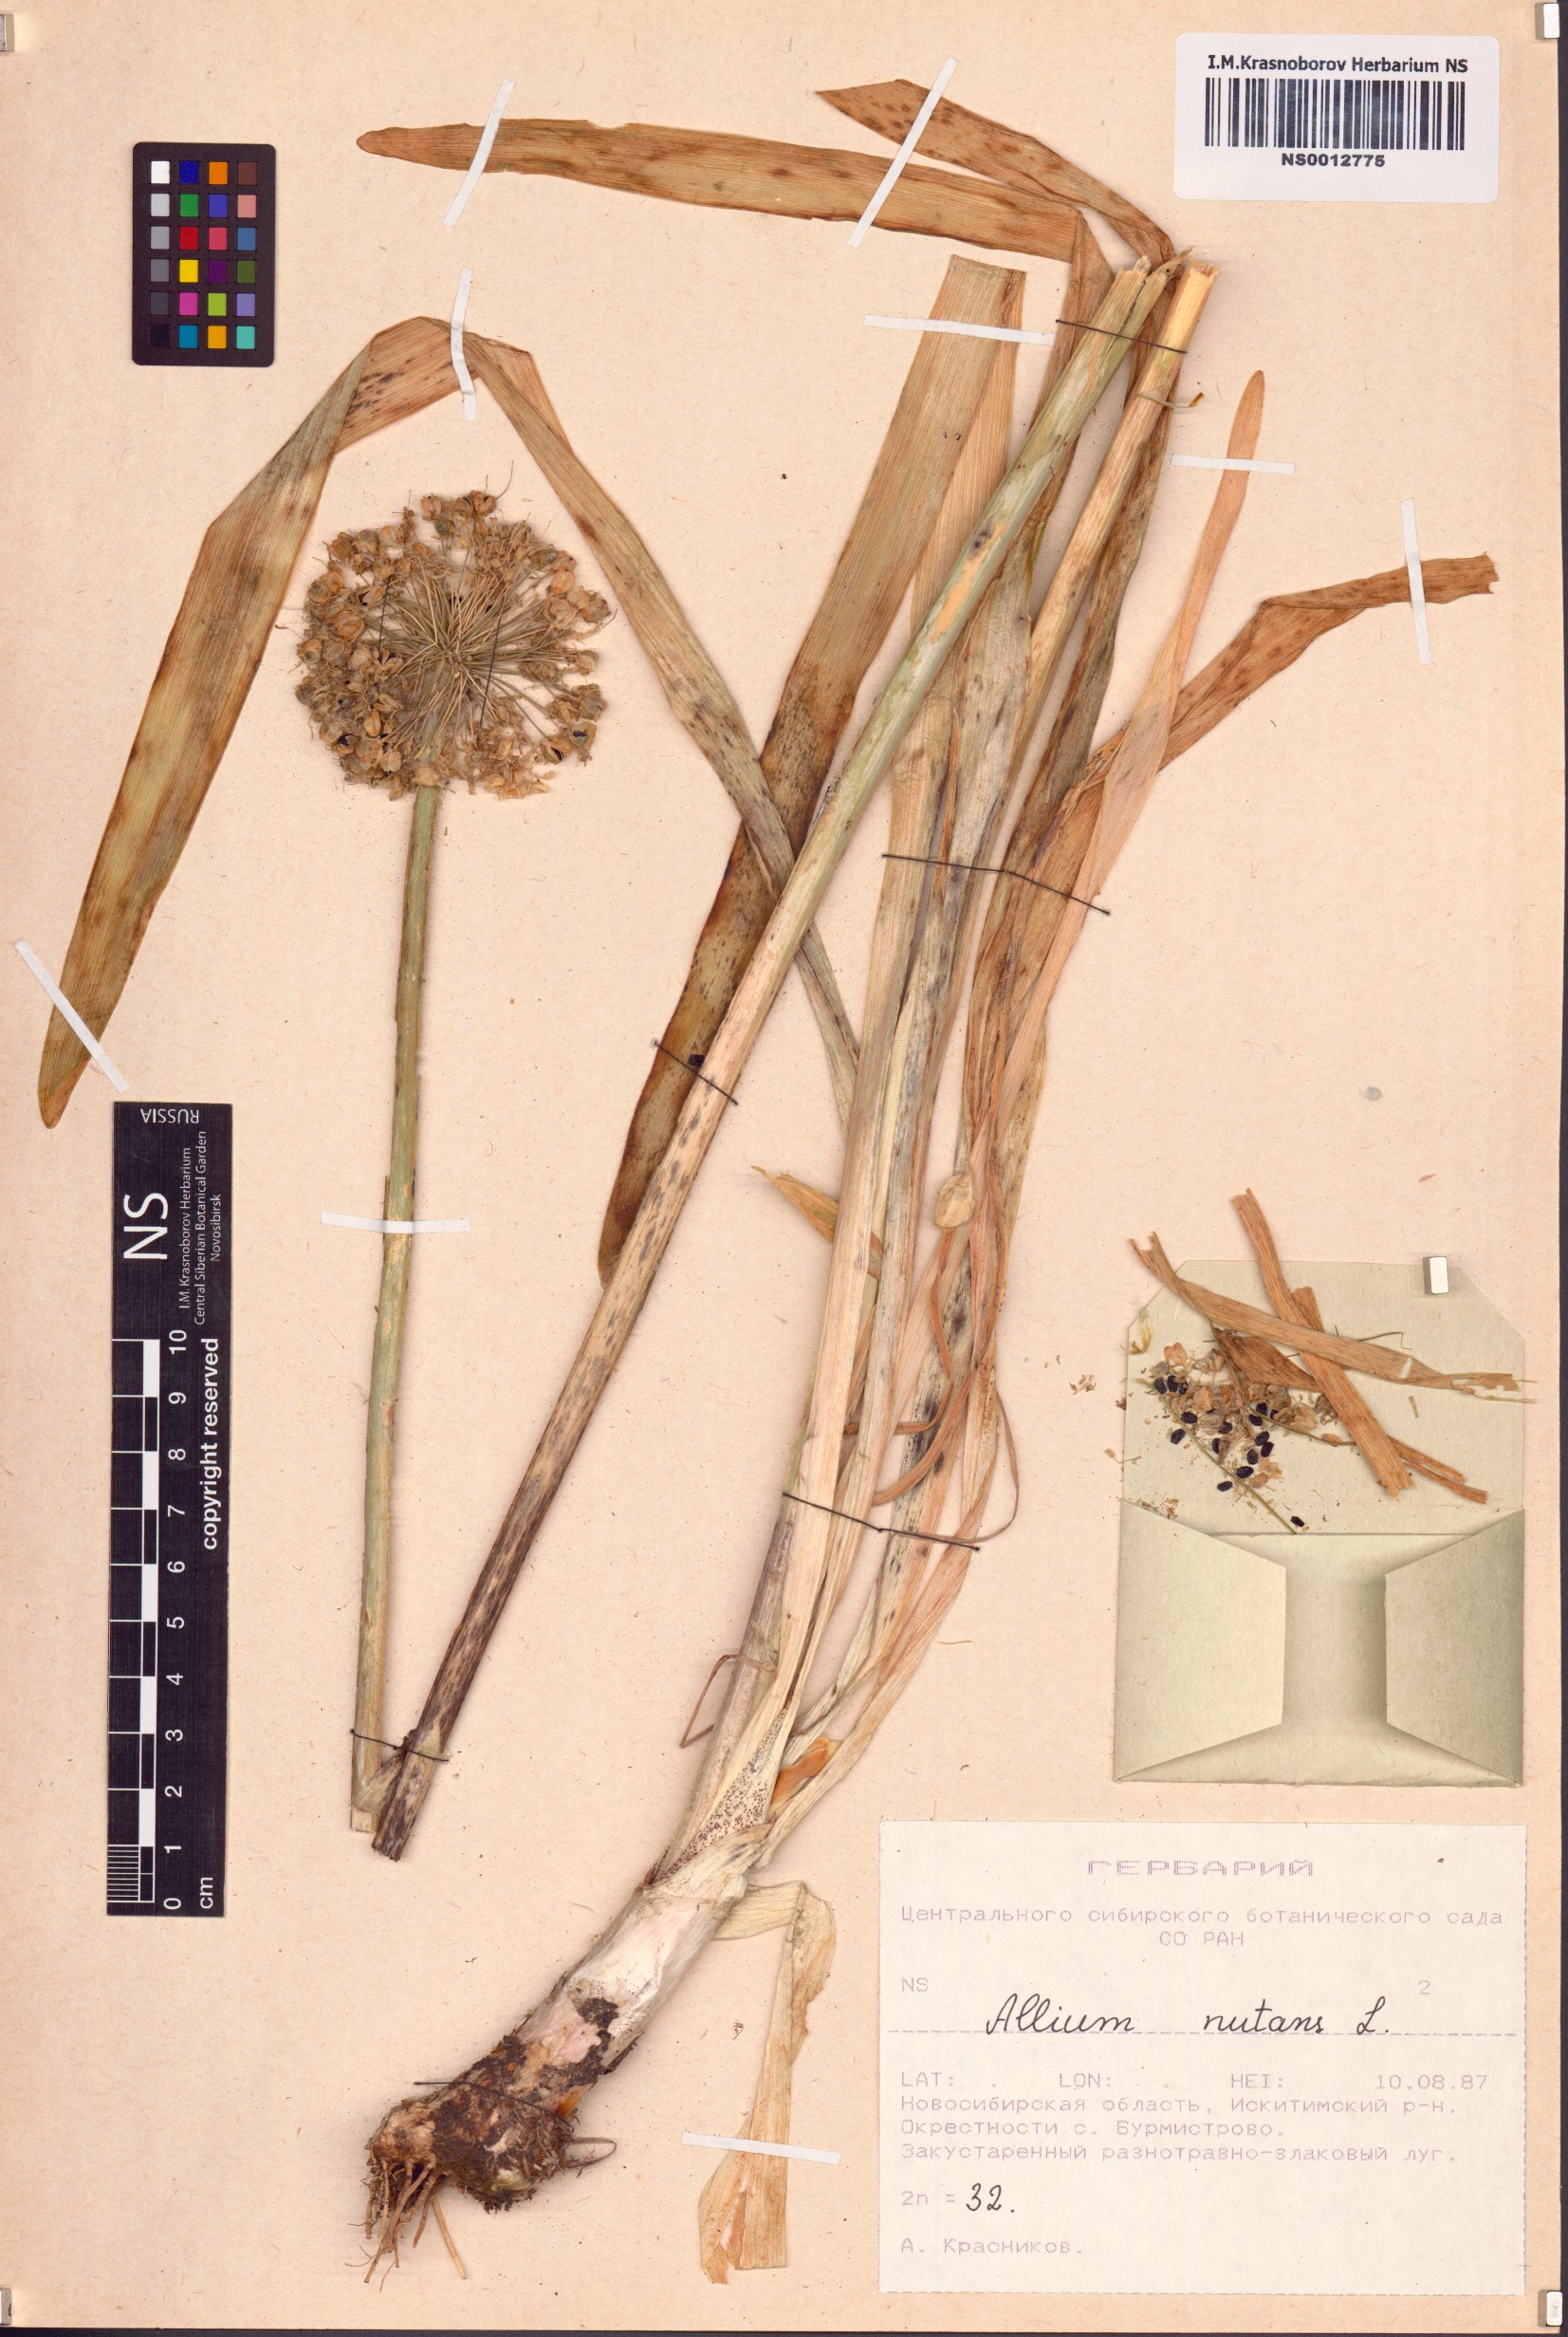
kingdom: Plantae
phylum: Tracheophyta
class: Liliopsida
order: Asparagales
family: Amaryllidaceae
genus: Allium
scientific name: Allium nutans
